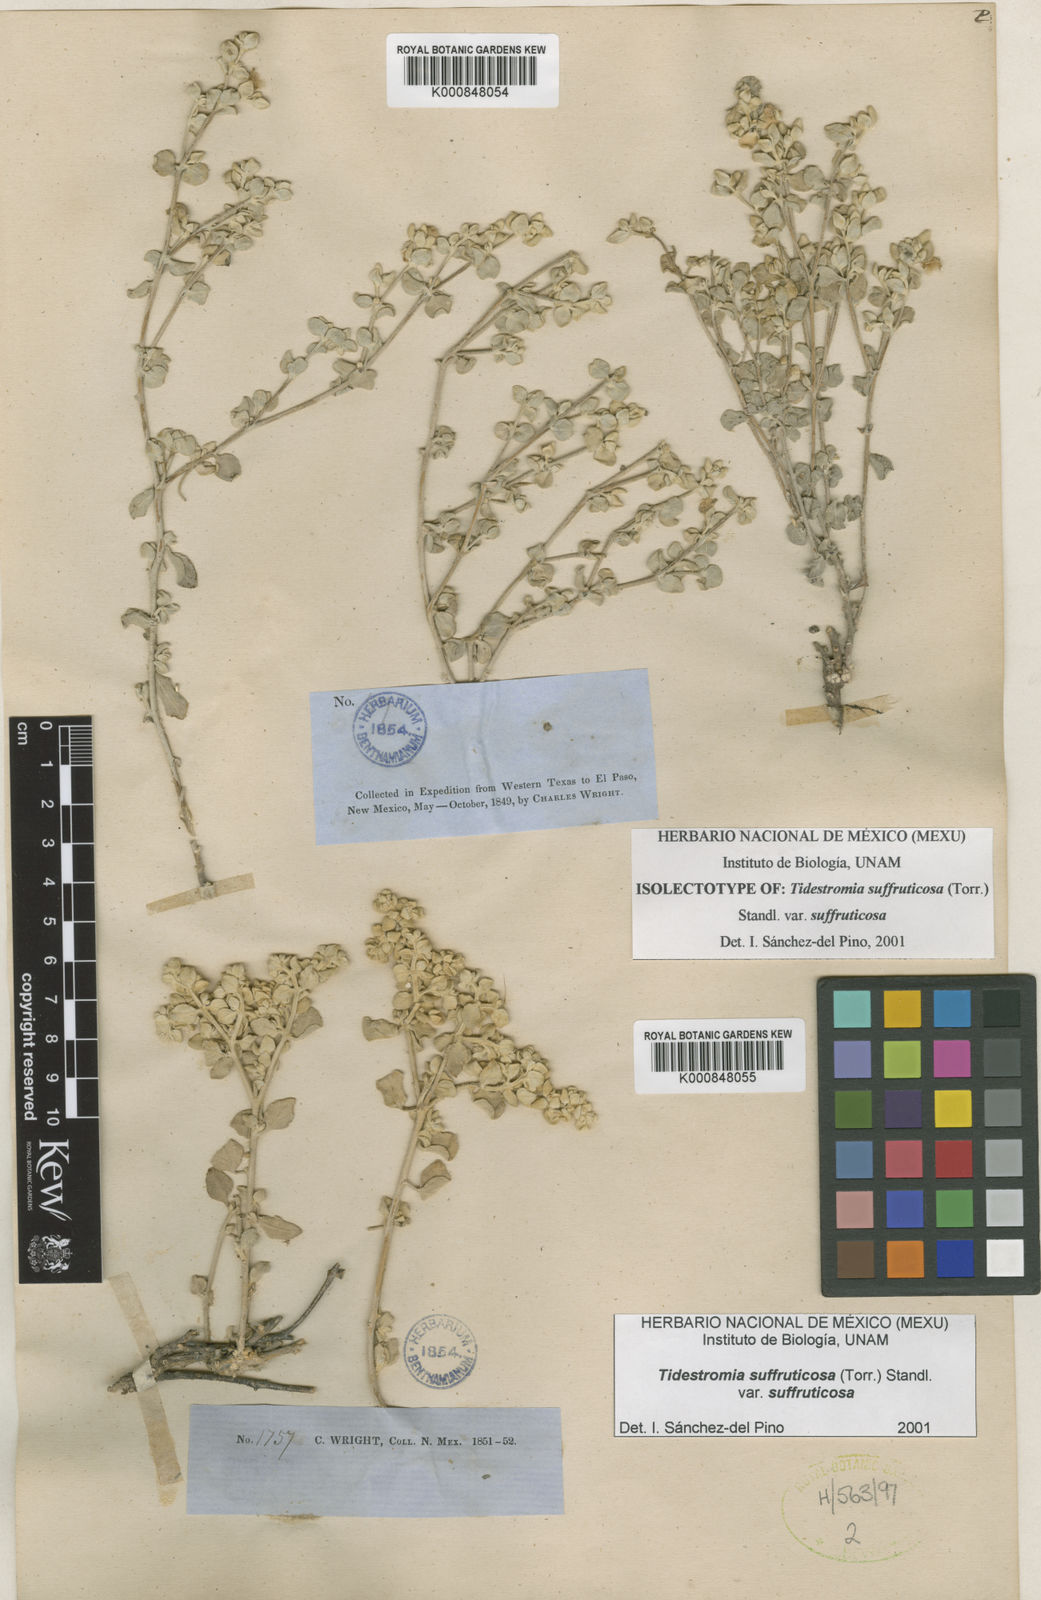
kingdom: Plantae
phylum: Tracheophyta
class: Magnoliopsida
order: Caryophyllales
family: Amaranthaceae
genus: Tidestromia
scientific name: Tidestromia suffruticosa
